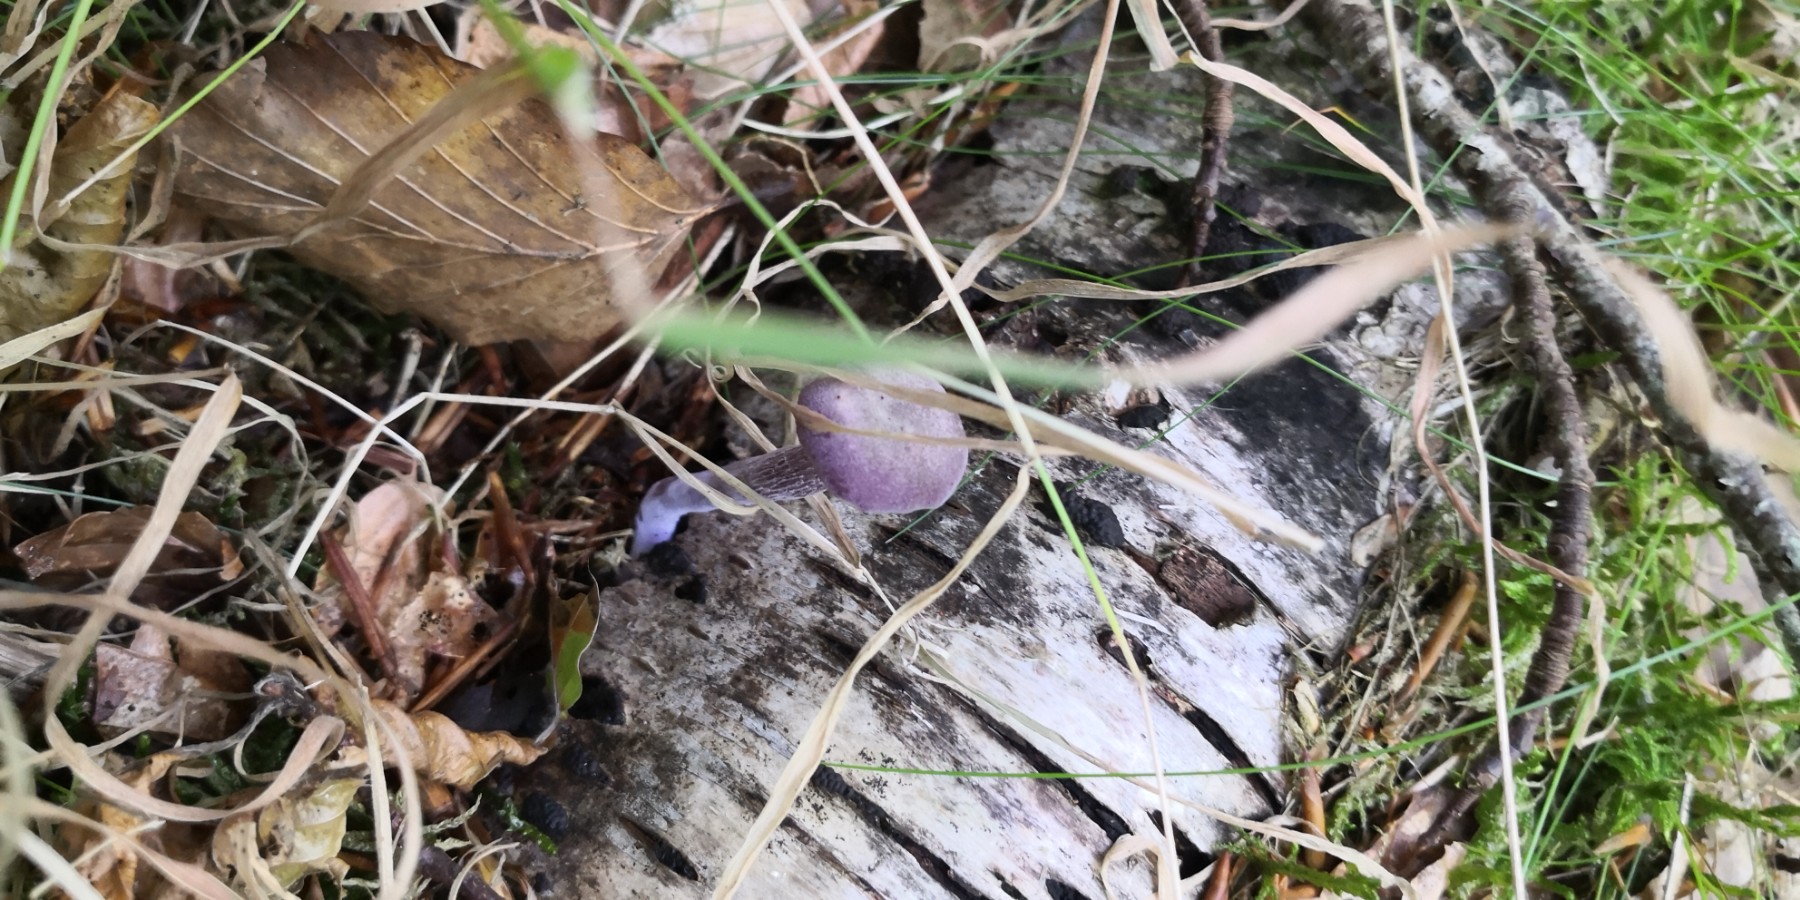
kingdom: Fungi
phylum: Basidiomycota
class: Agaricomycetes
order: Agaricales
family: Hydnangiaceae
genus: Laccaria
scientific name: Laccaria amethystina
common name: violet ametysthat
